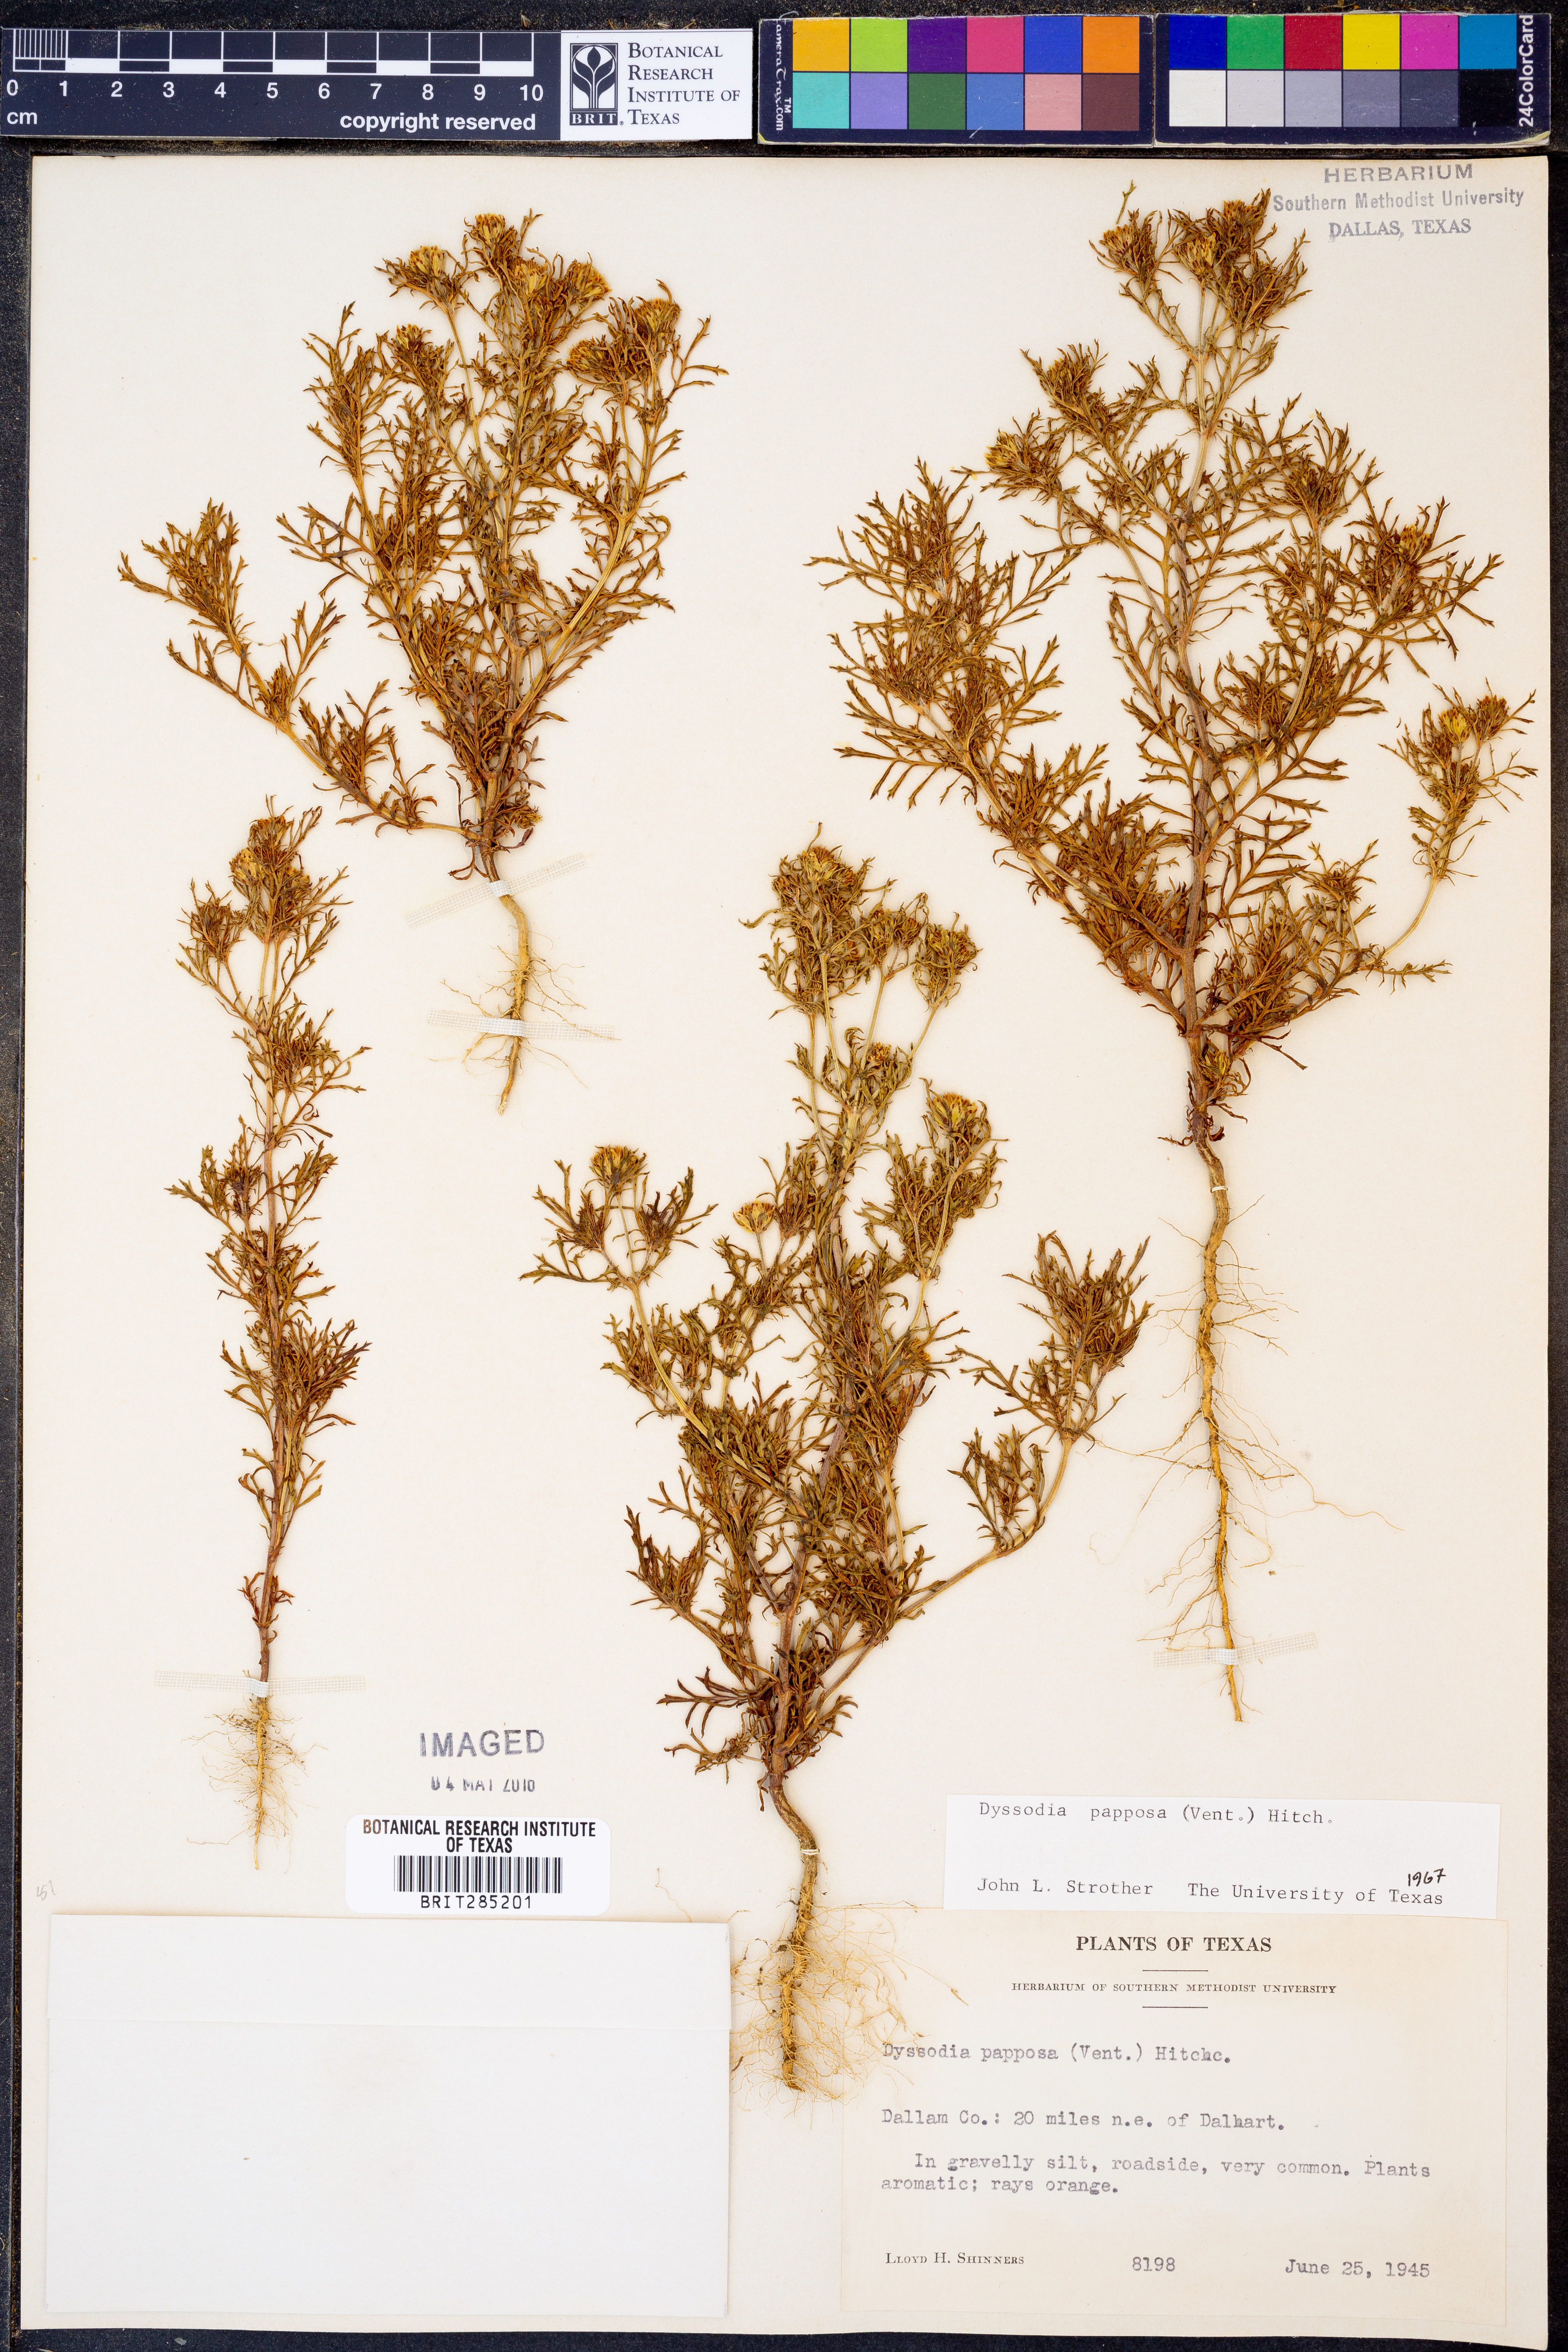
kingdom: Plantae
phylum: Tracheophyta
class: Magnoliopsida
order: Asterales
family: Asteraceae
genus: Dyssodia
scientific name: Dyssodia papposa
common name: Dogweed
